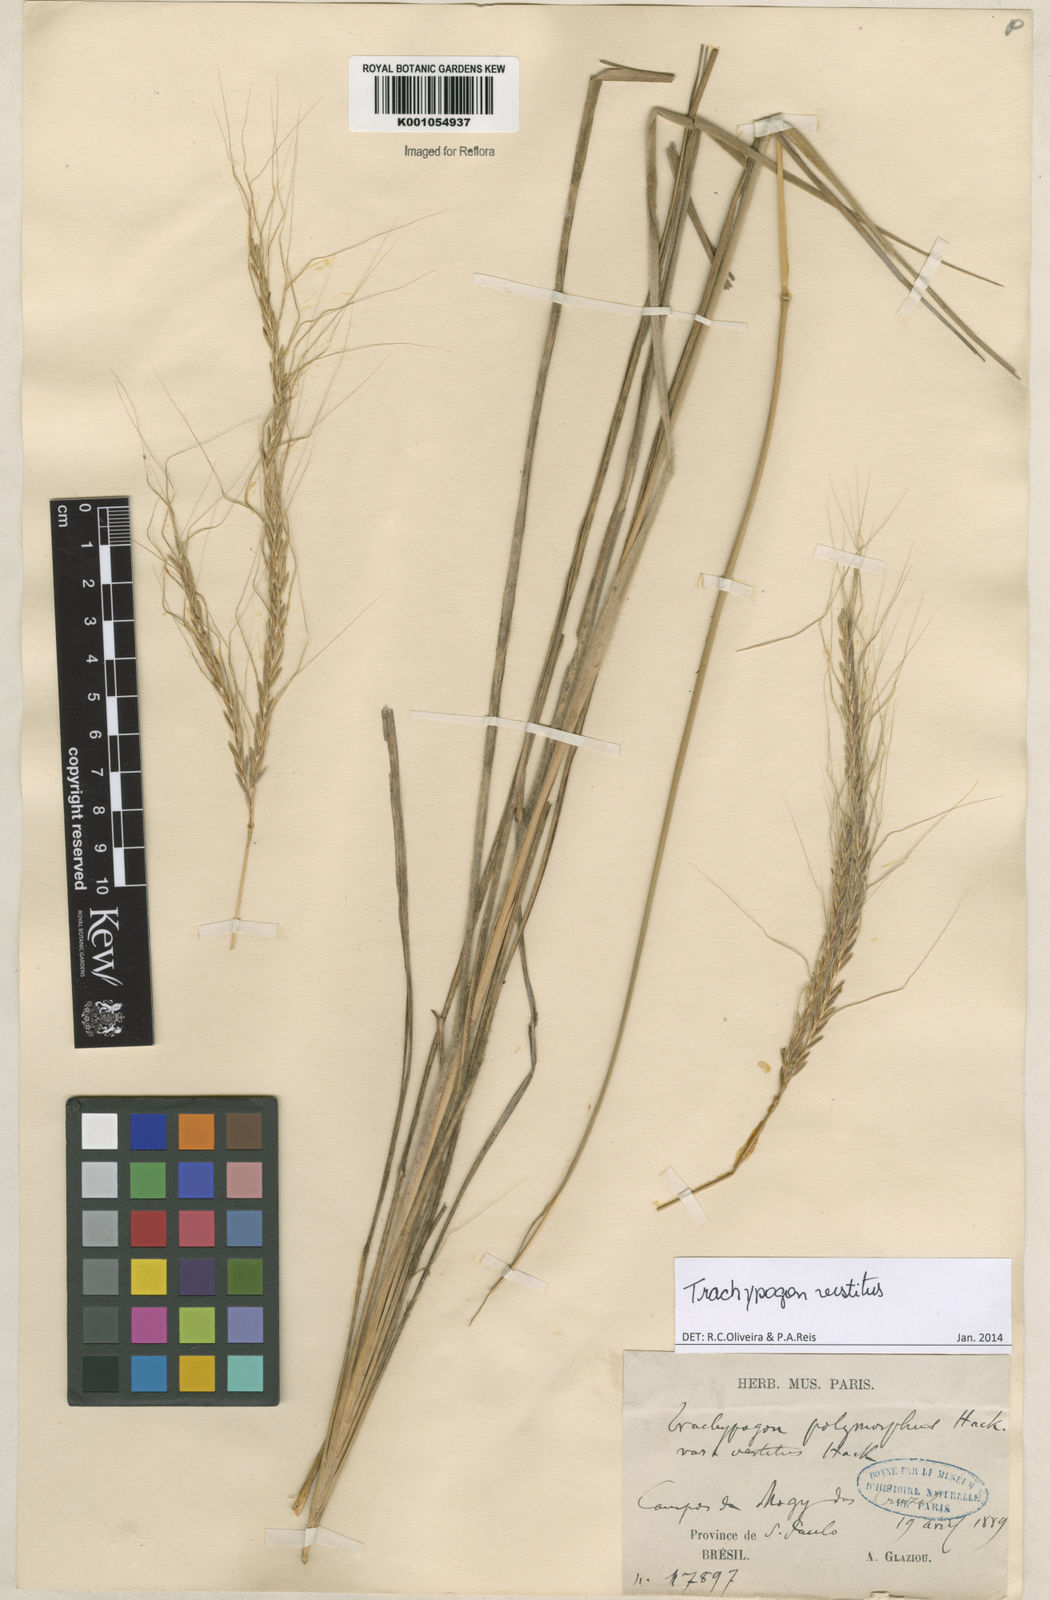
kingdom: Plantae
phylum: Tracheophyta
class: Liliopsida
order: Poales
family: Poaceae
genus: Trachypogon
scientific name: Trachypogon vestitus
